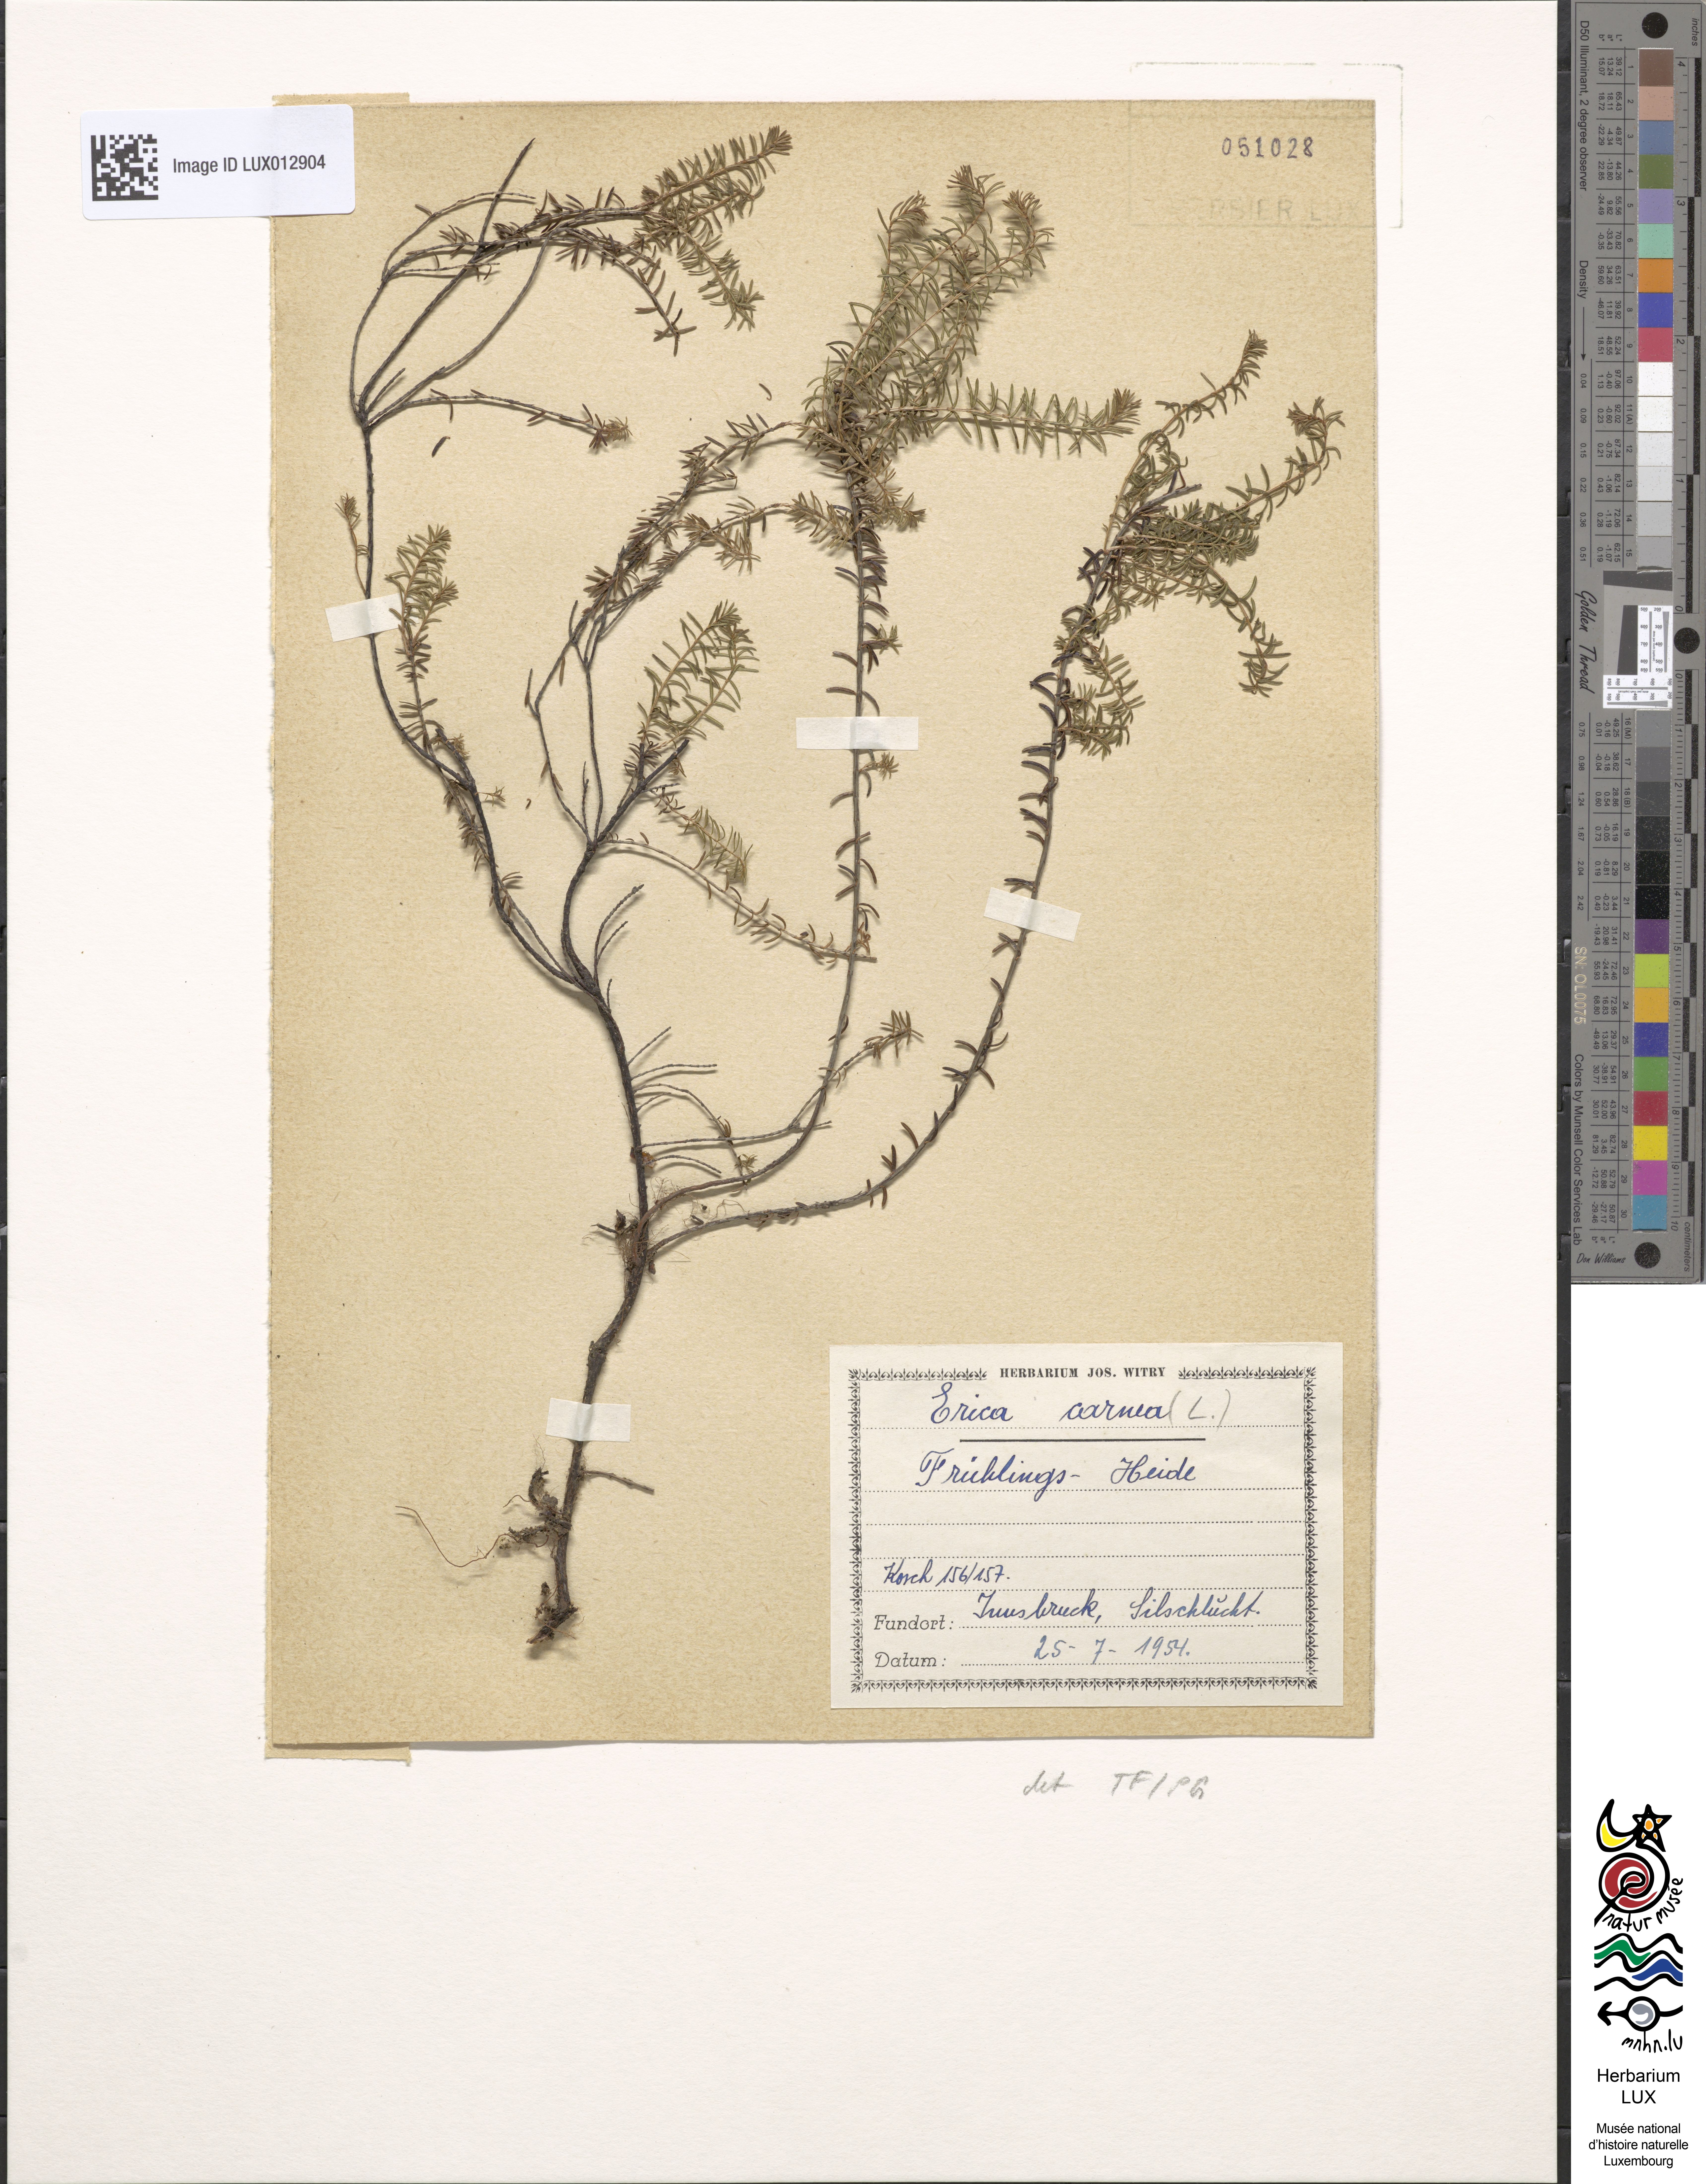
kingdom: Plantae
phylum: Tracheophyta
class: Magnoliopsida
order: Ericales
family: Ericaceae
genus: Erica
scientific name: Erica carnea
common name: Winter heath
